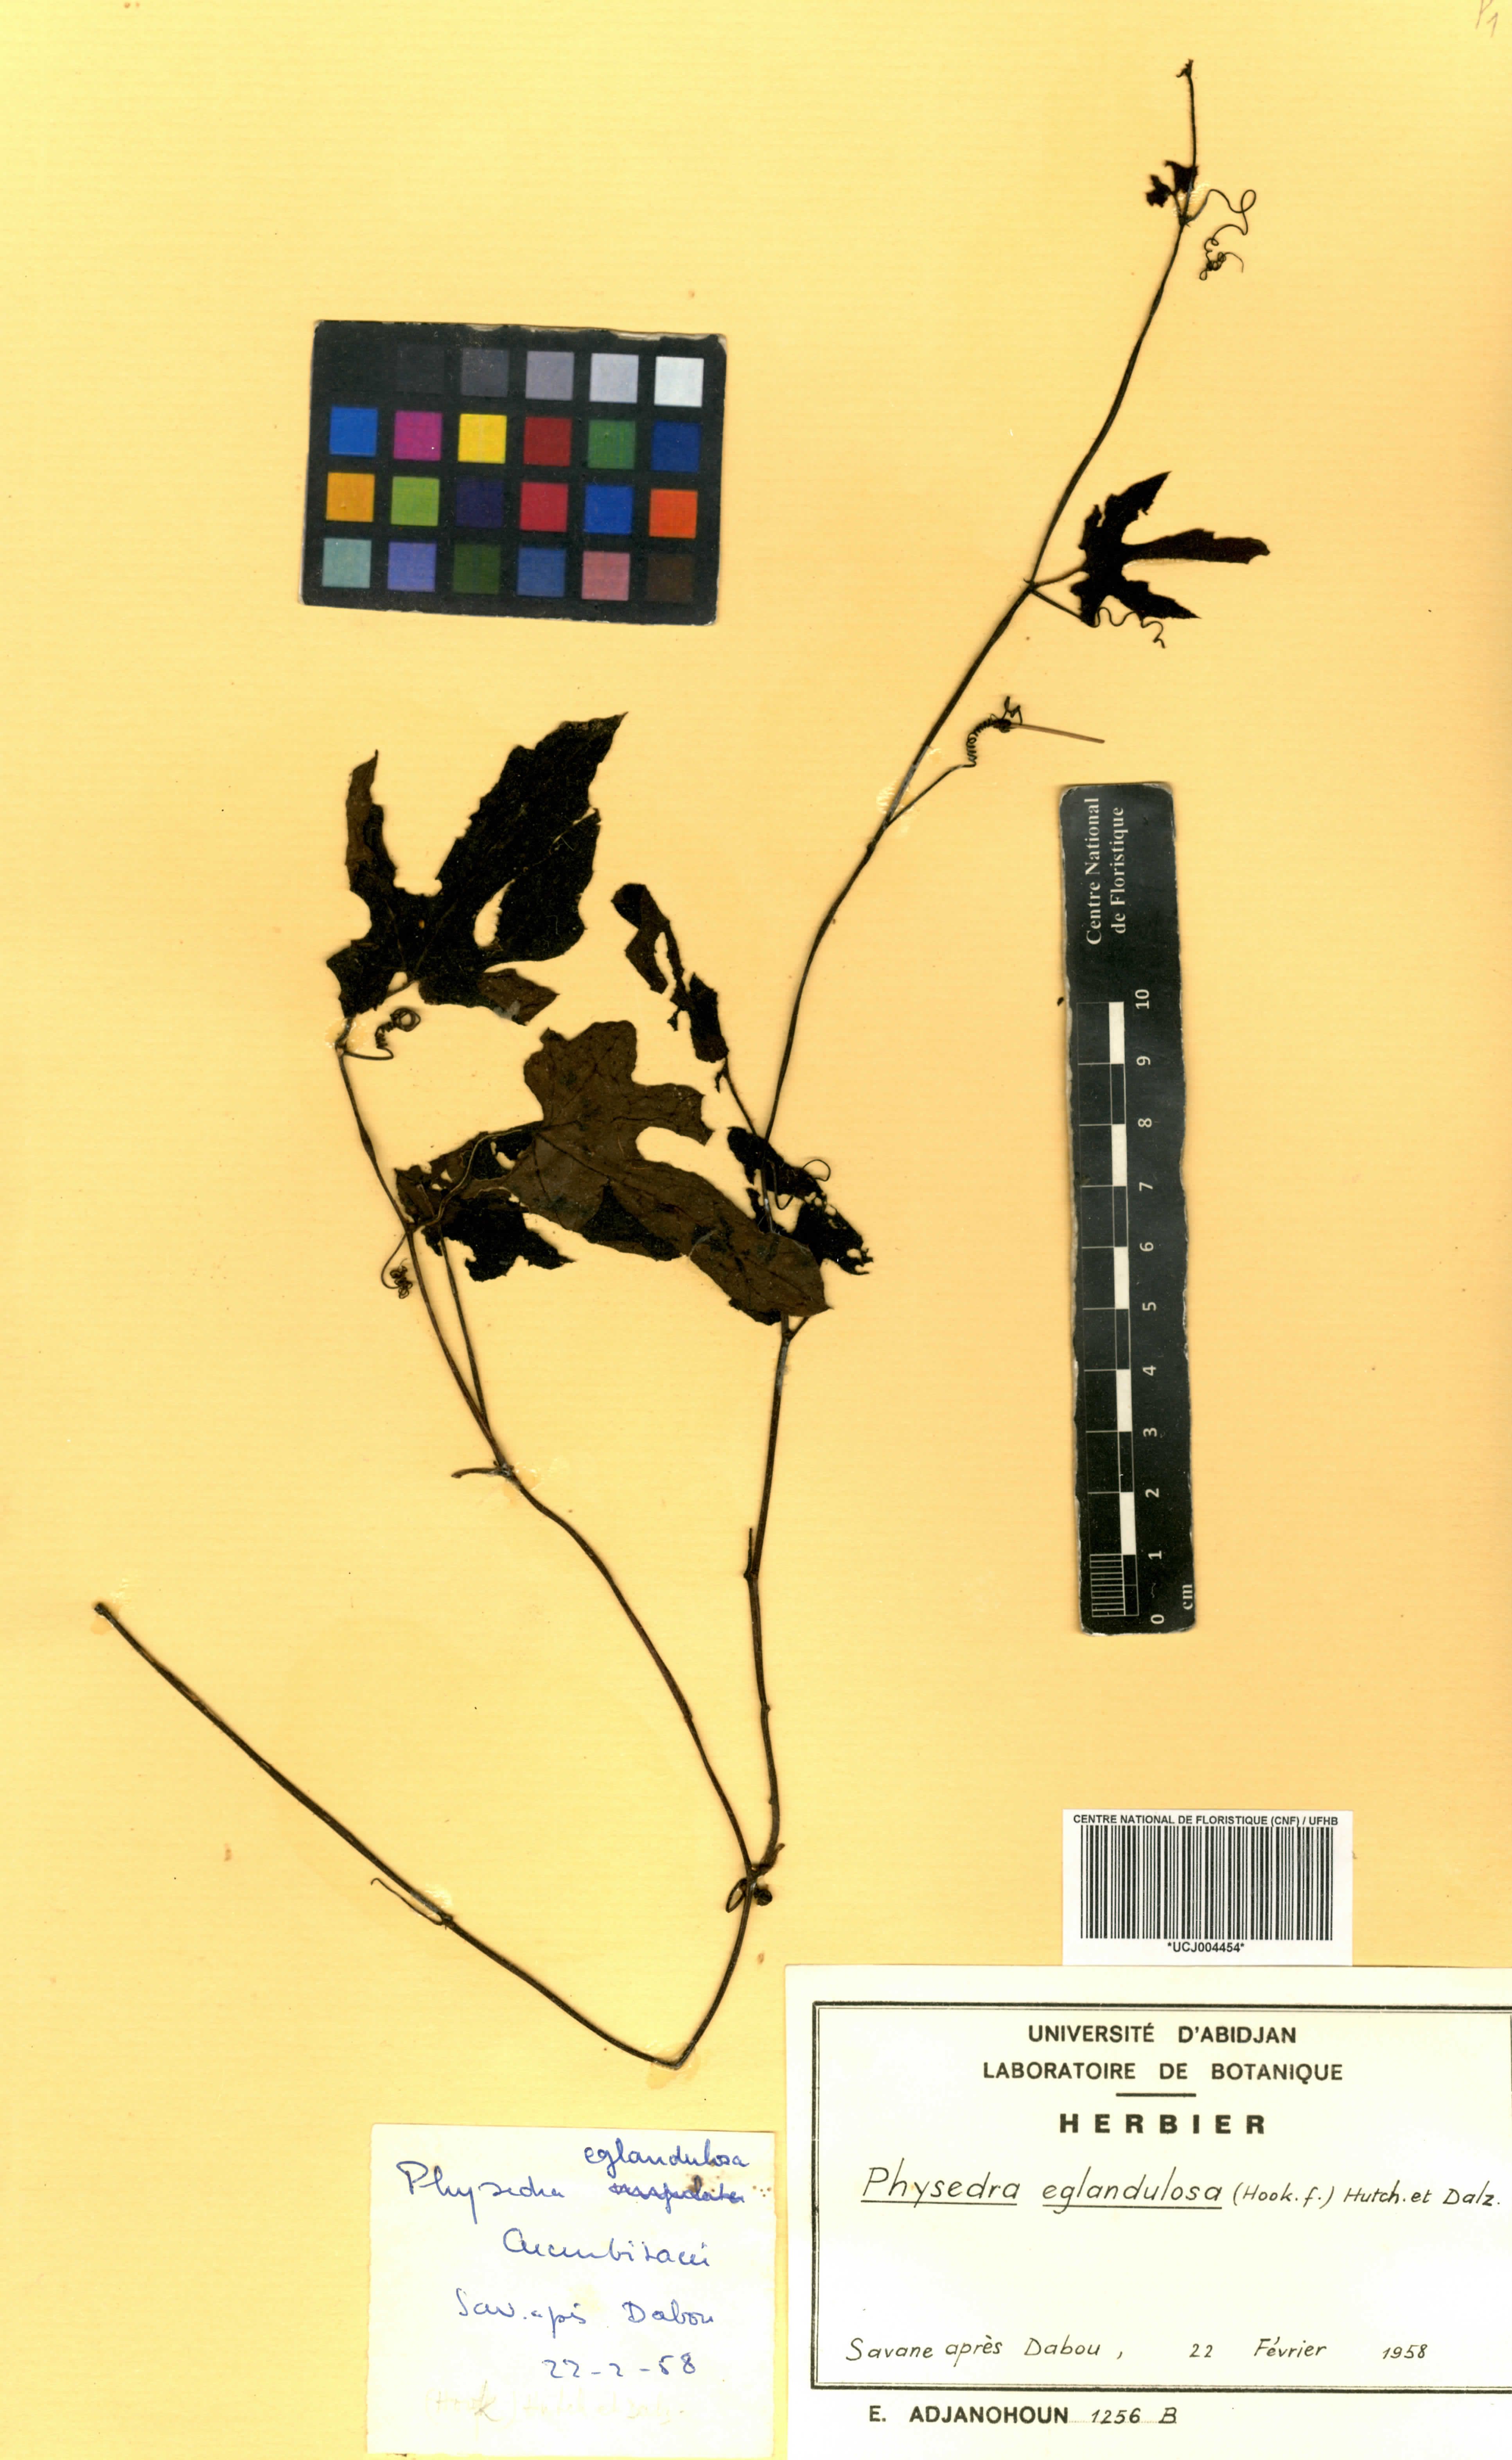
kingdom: Plantae
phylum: Tracheophyta
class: Magnoliopsida
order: Cucurbitales
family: Cucurbitaceae
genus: Ruthalicia
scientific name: Ruthalicia eglandulosa
